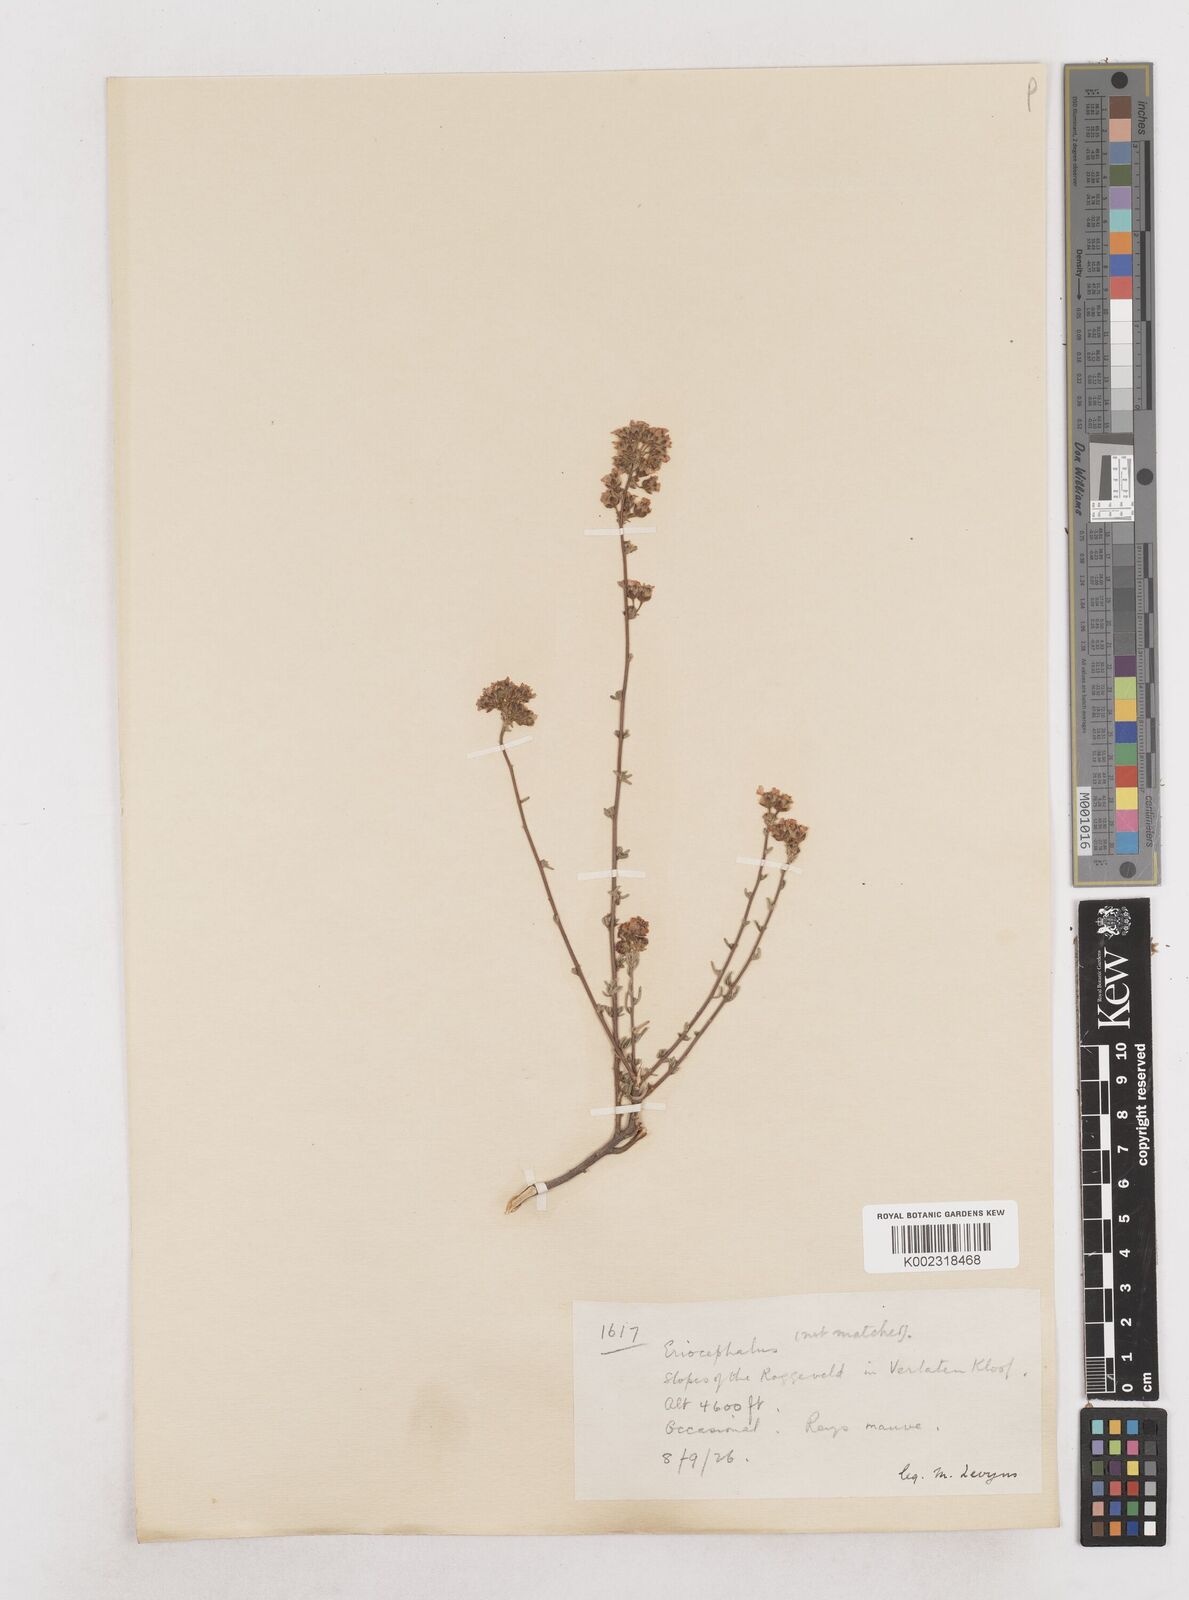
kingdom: Plantae
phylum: Tracheophyta
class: Magnoliopsida
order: Asterales
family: Asteraceae
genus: Eriocephalus
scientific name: Eriocephalus
